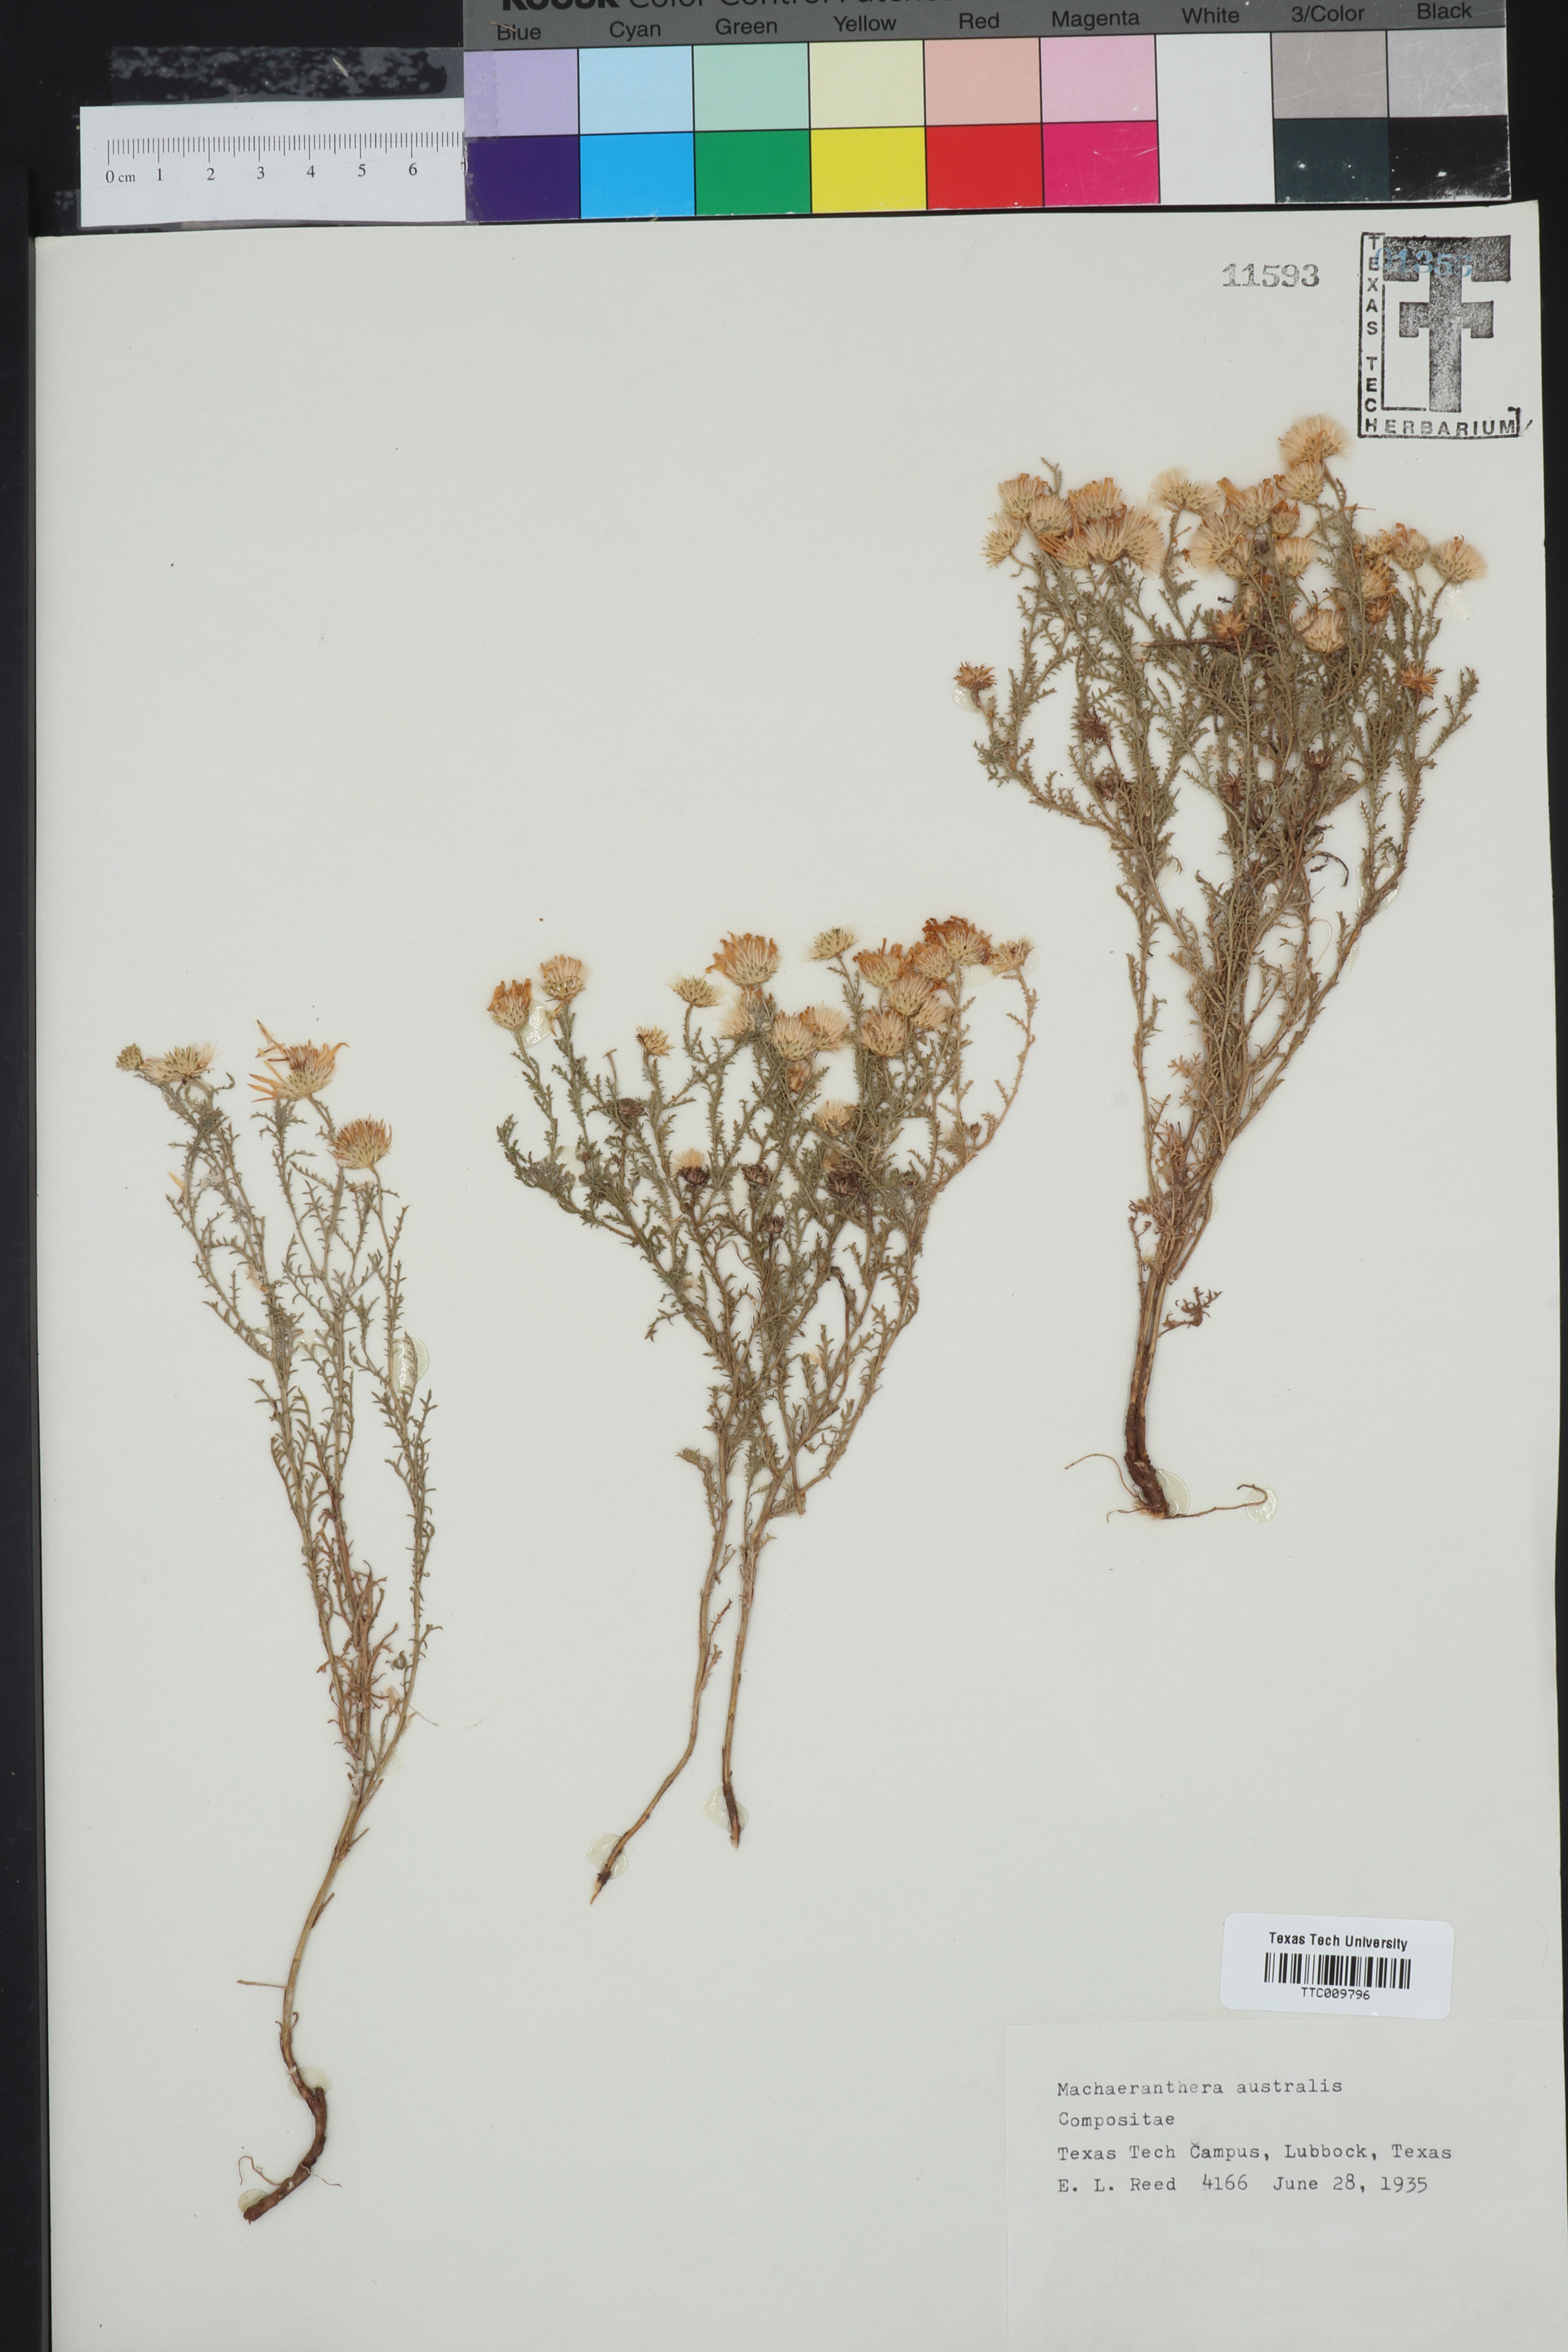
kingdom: Plantae
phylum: Tracheophyta
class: Magnoliopsida
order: Asterales
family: Asteraceae
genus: Xanthisma
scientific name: Xanthisma spinulosum
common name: Spiny goldenweed
